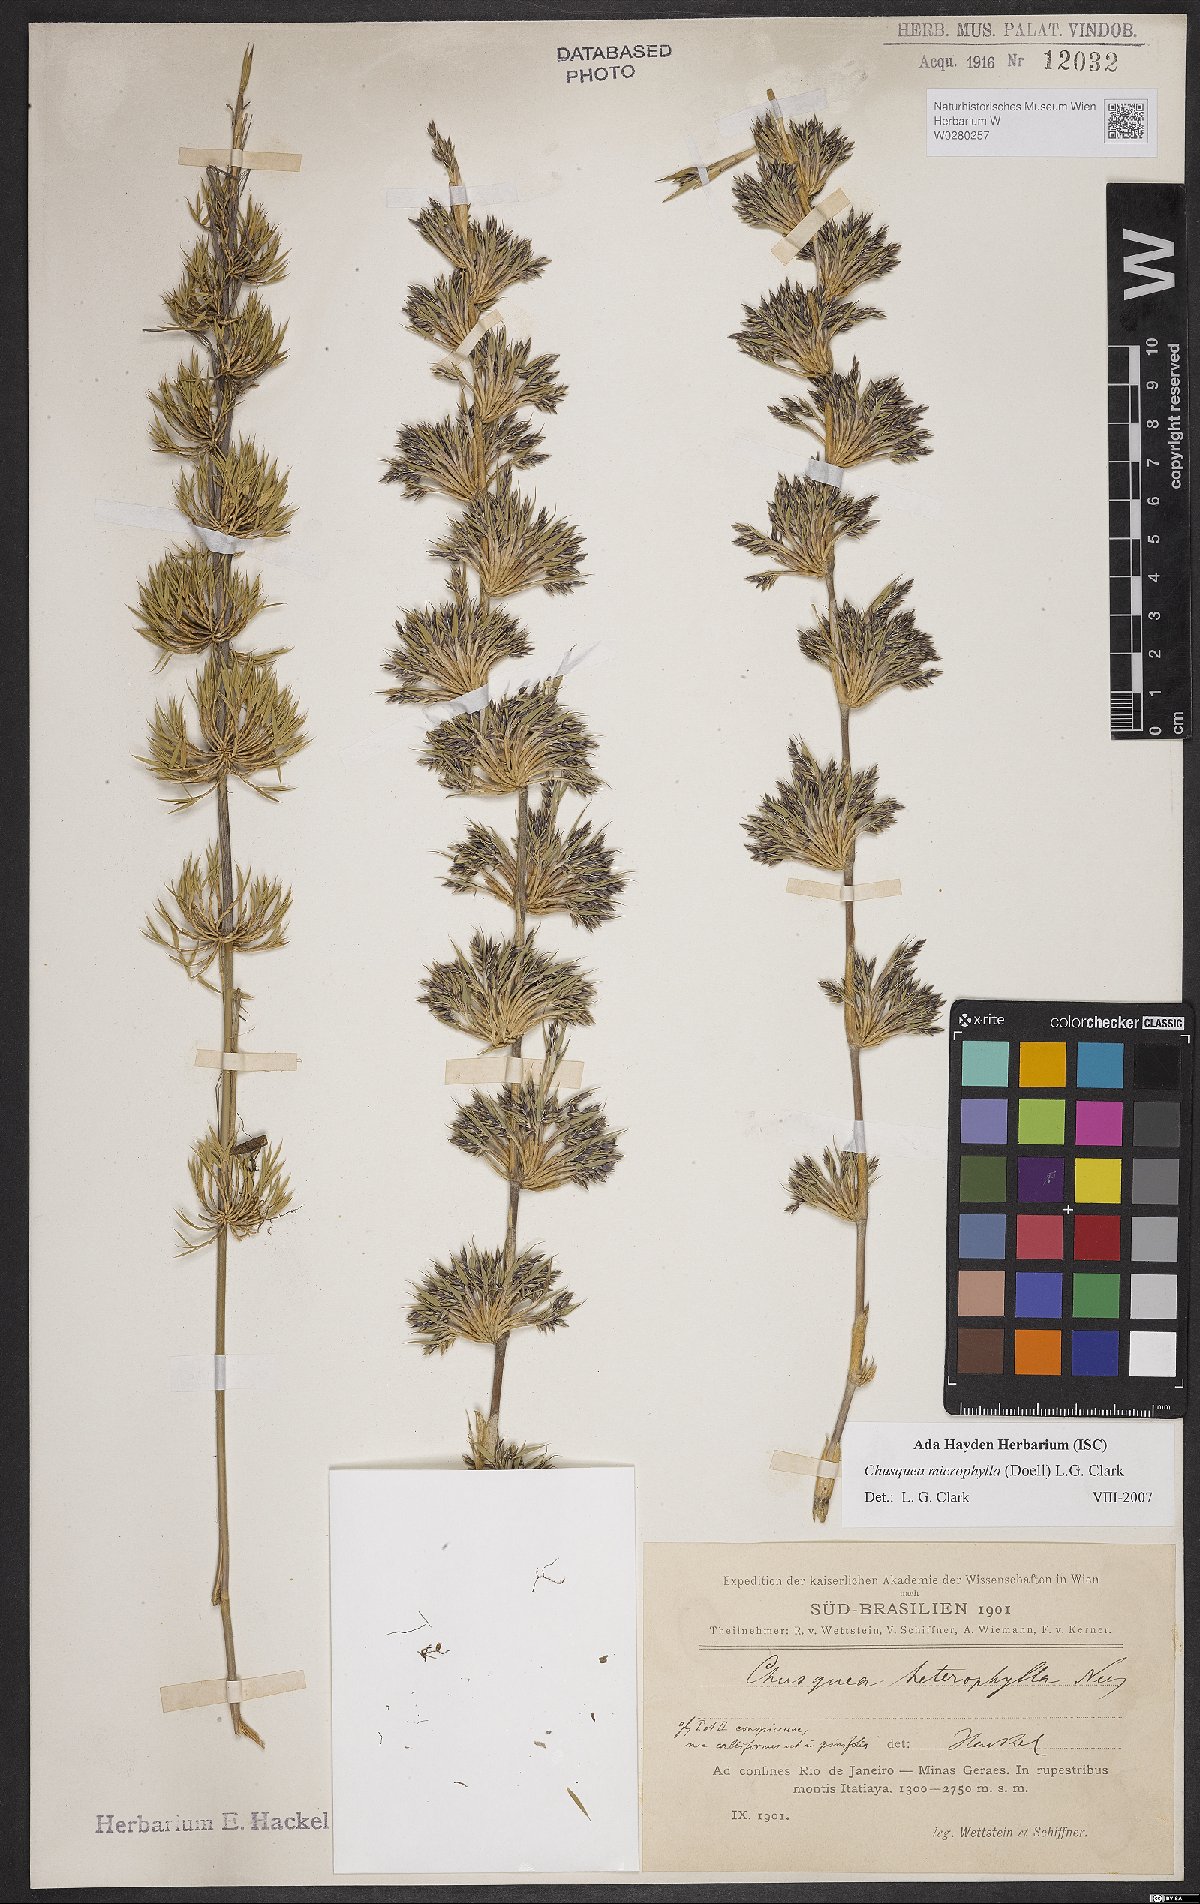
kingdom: Plantae
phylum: Tracheophyta
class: Liliopsida
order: Poales
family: Poaceae
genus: Chusquea
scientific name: Chusquea microphylla
